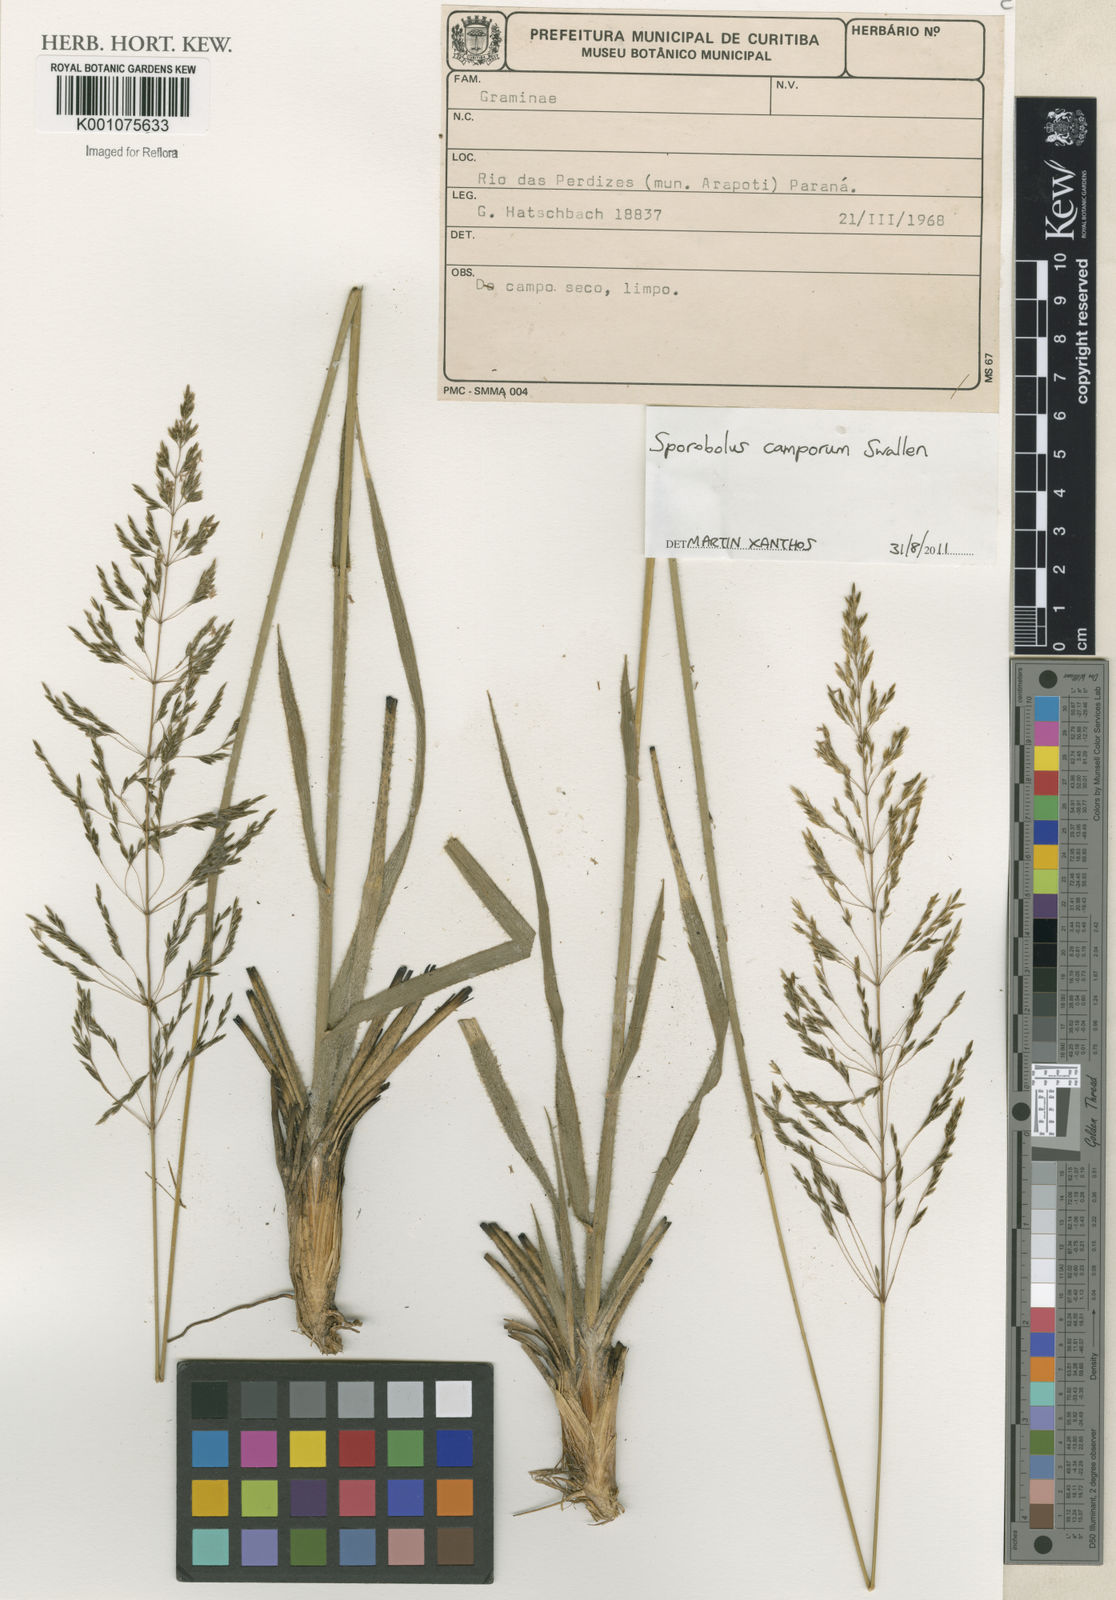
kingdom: Plantae
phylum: Tracheophyta
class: Liliopsida
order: Poales
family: Poaceae
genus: Sporobolus
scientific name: Sporobolus camporum
